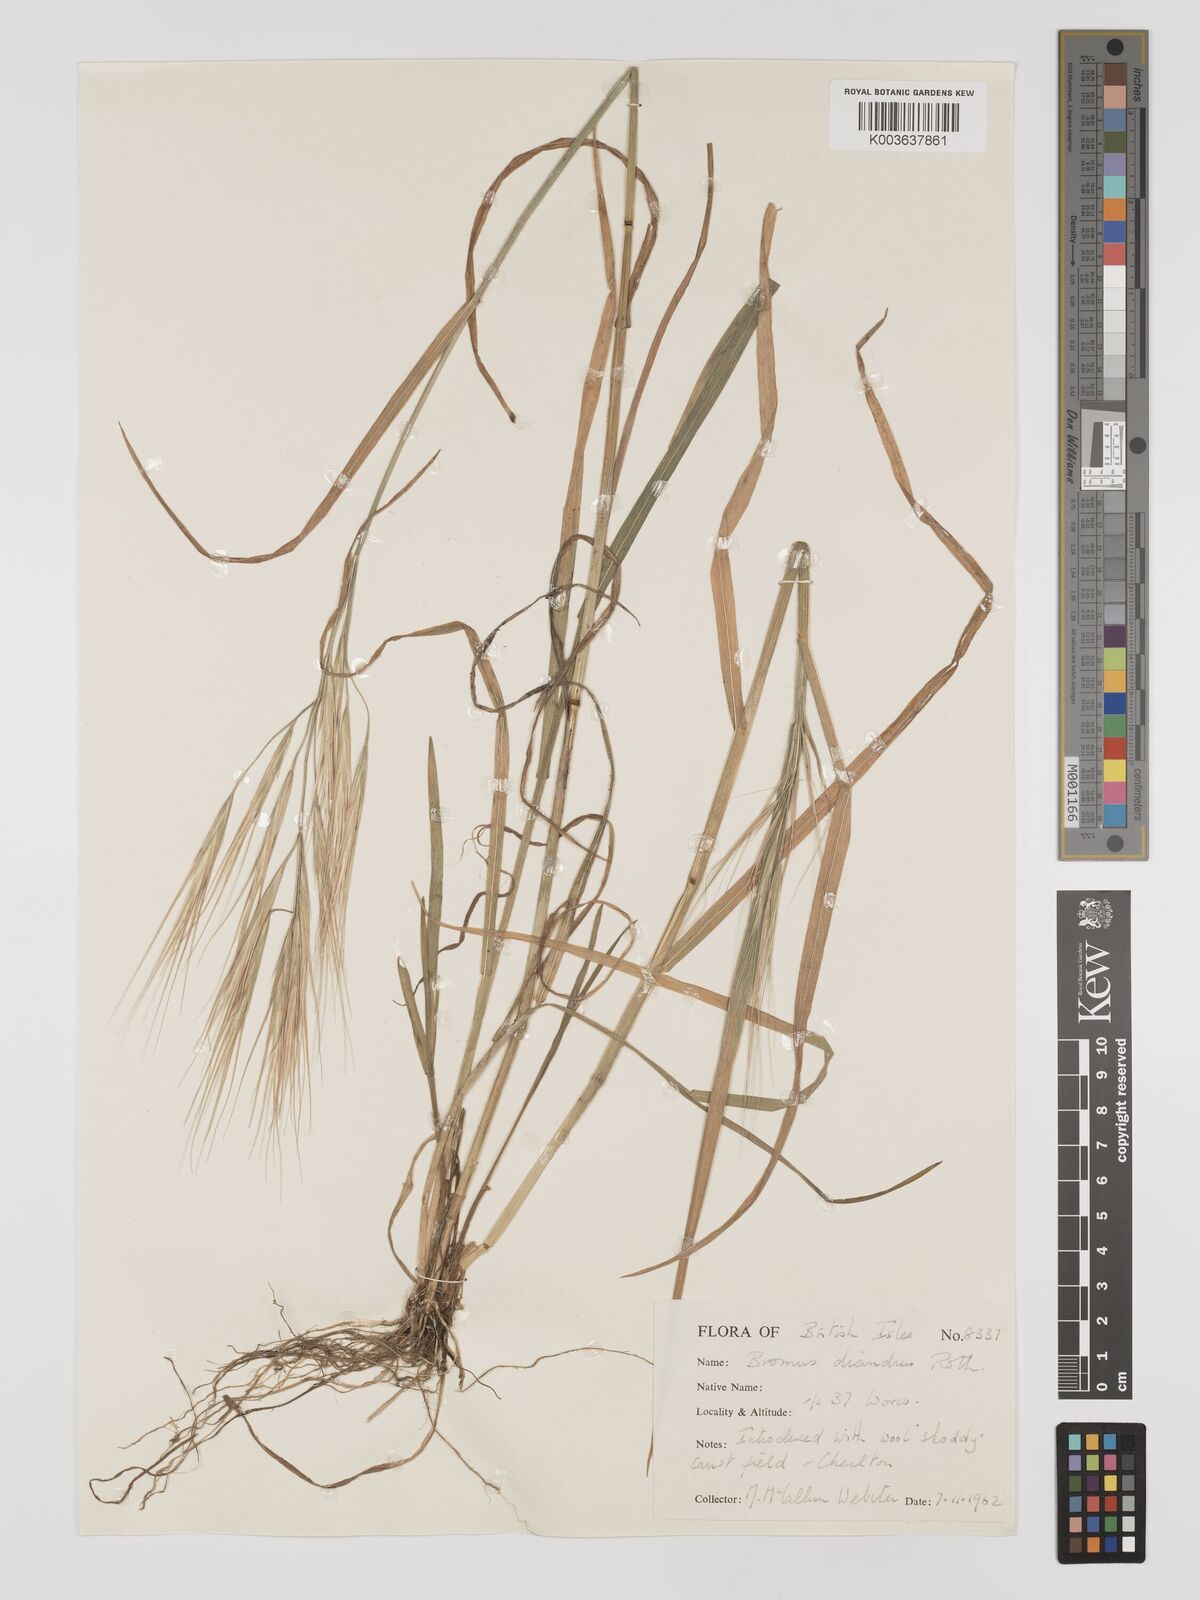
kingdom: Plantae
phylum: Tracheophyta
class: Liliopsida
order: Poales
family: Poaceae
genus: Bromus
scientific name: Bromus
